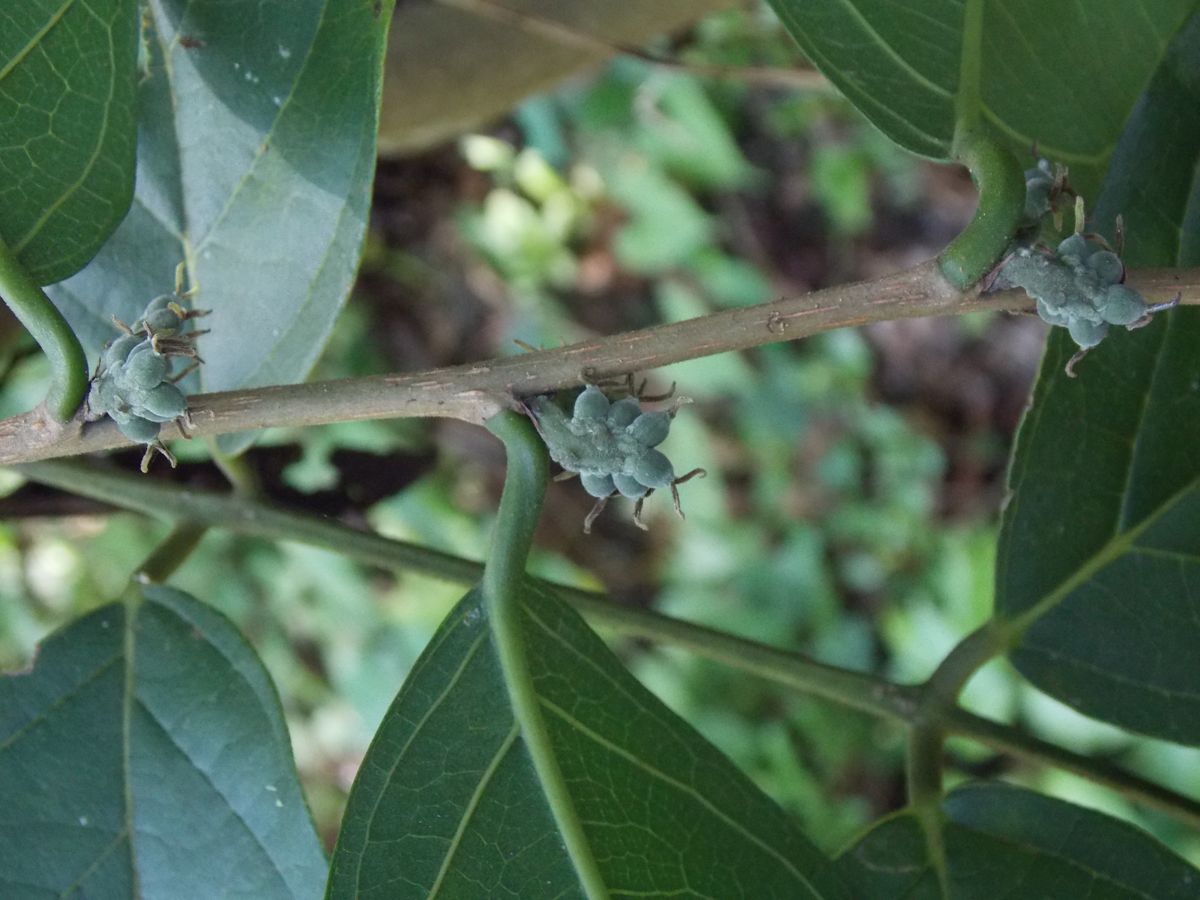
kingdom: Plantae
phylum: Tracheophyta
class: Magnoliopsida
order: Rosales
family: Moraceae
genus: Trophis
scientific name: Trophis racemosa
